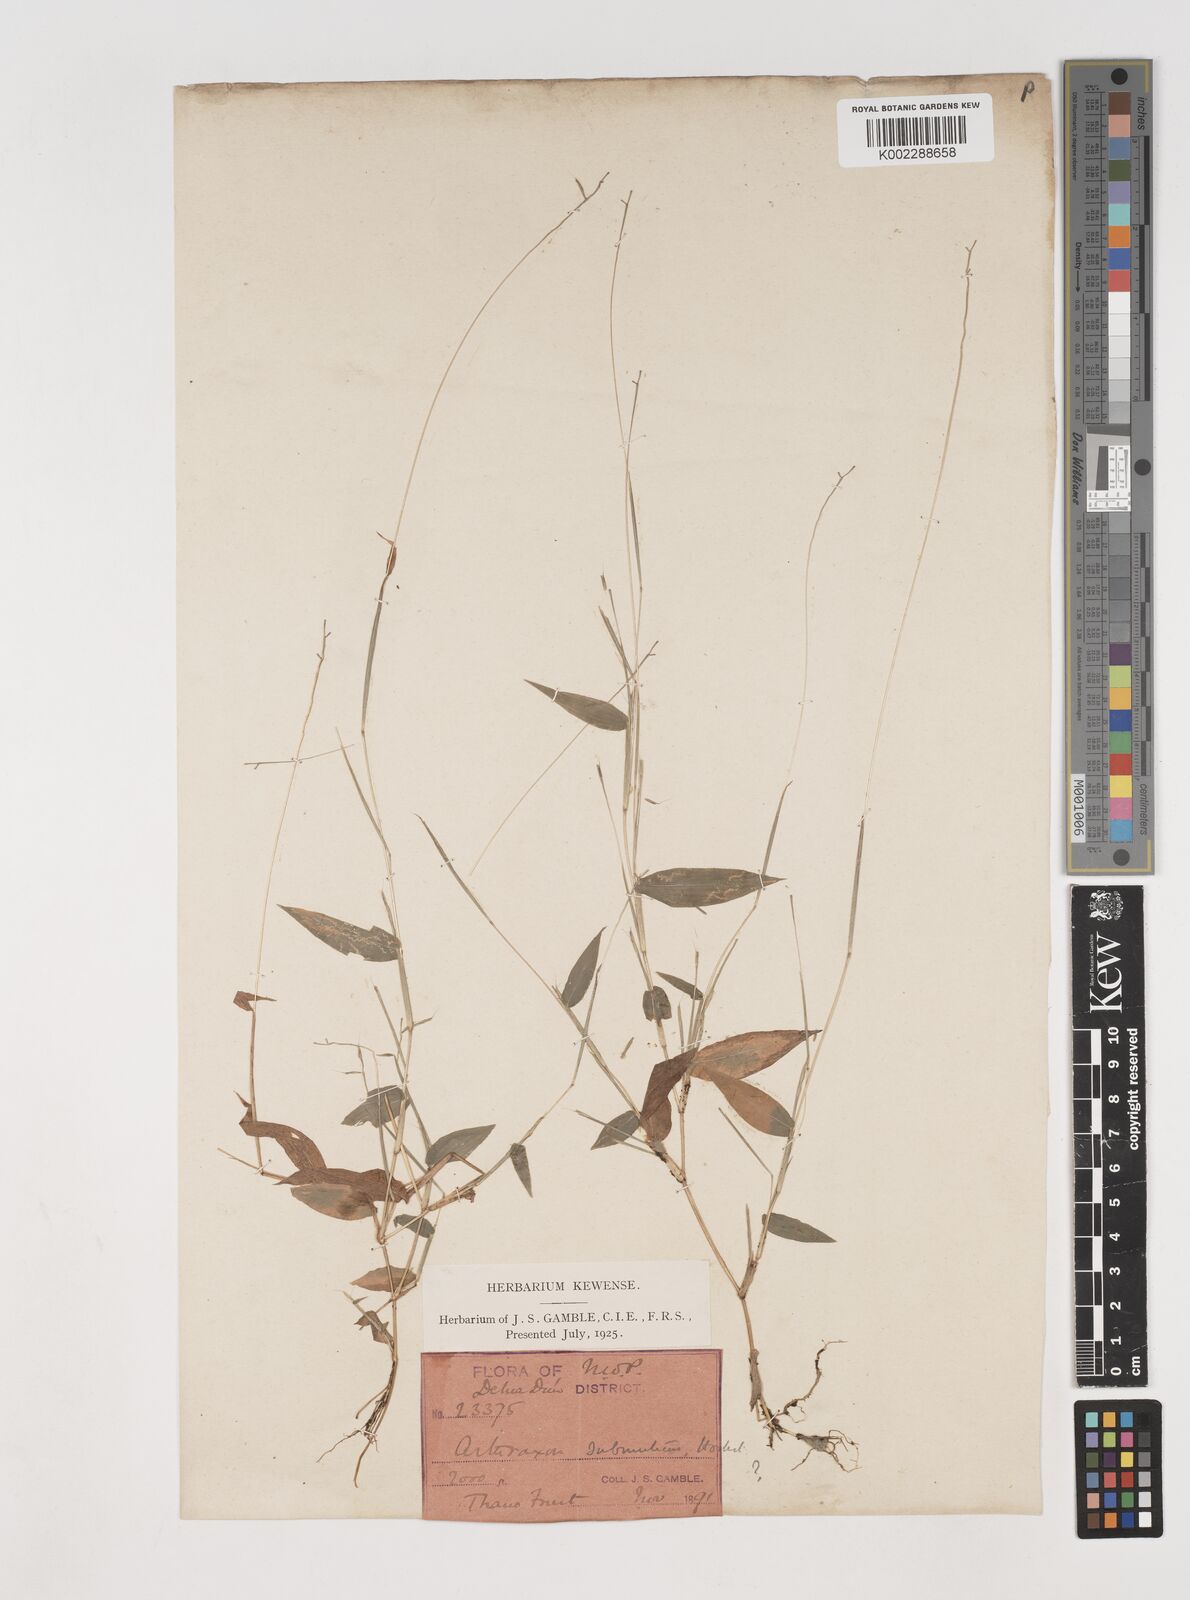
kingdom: Plantae
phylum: Tracheophyta
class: Liliopsida
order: Poales
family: Poaceae
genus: Arthraxon
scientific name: Arthraxon nudus
